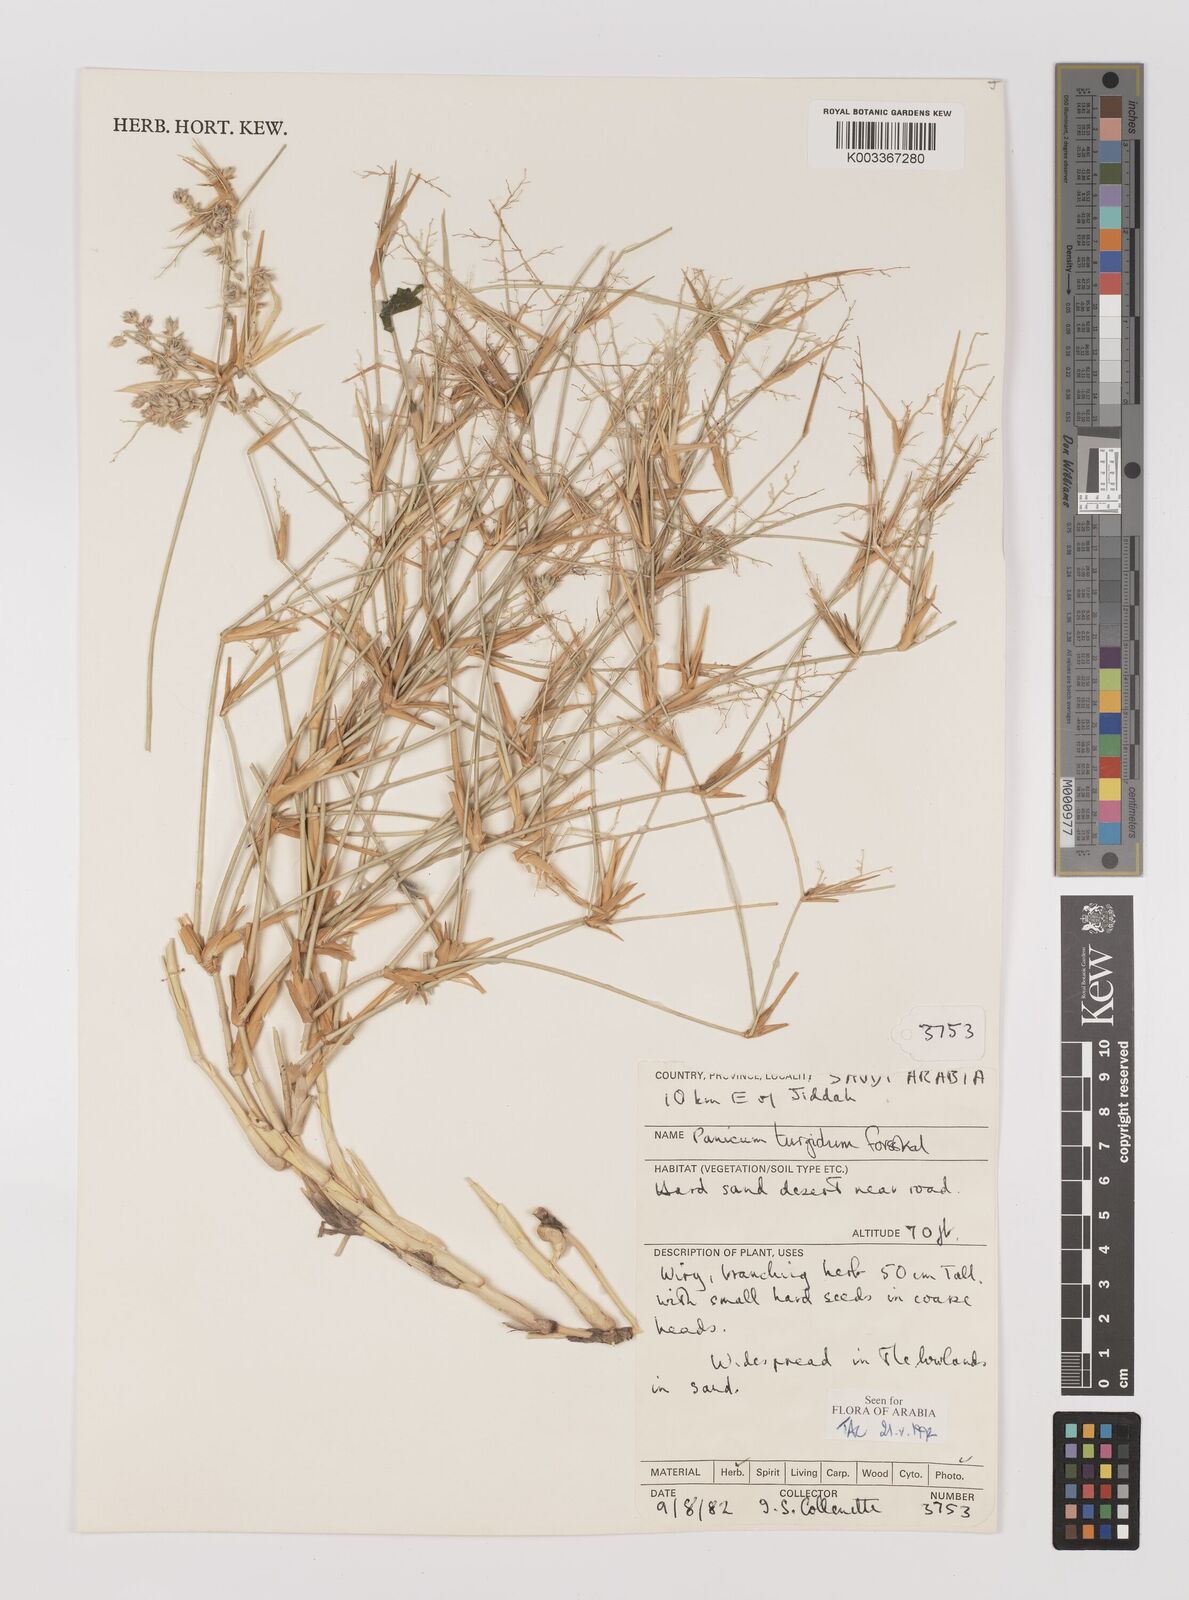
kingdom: Plantae
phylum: Tracheophyta
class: Liliopsida
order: Poales
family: Poaceae
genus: Panicum
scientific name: Panicum turgidum
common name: Desert grass
